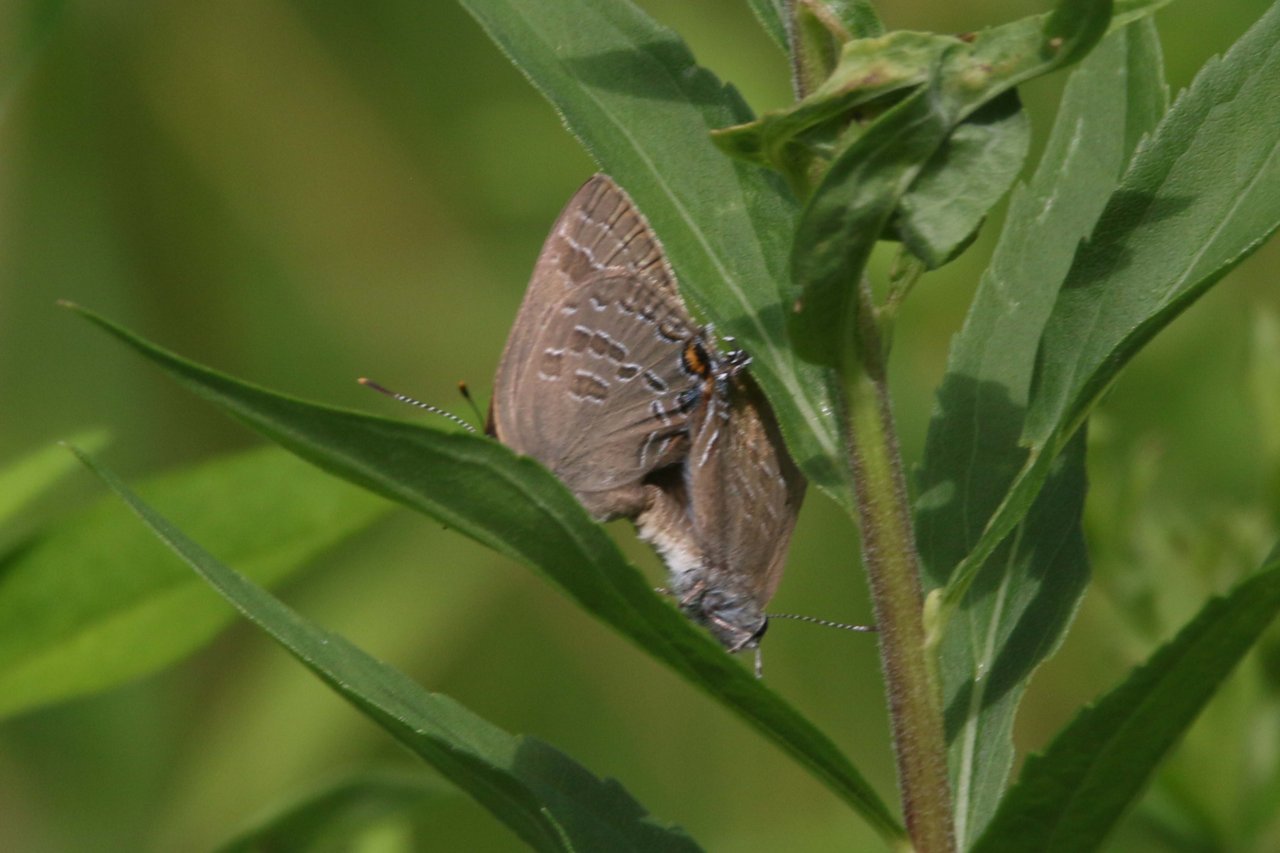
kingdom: Animalia
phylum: Arthropoda
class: Insecta
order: Lepidoptera
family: Lycaenidae
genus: Strymon
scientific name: Strymon caryaevorus
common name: Hickory Hairstreak
